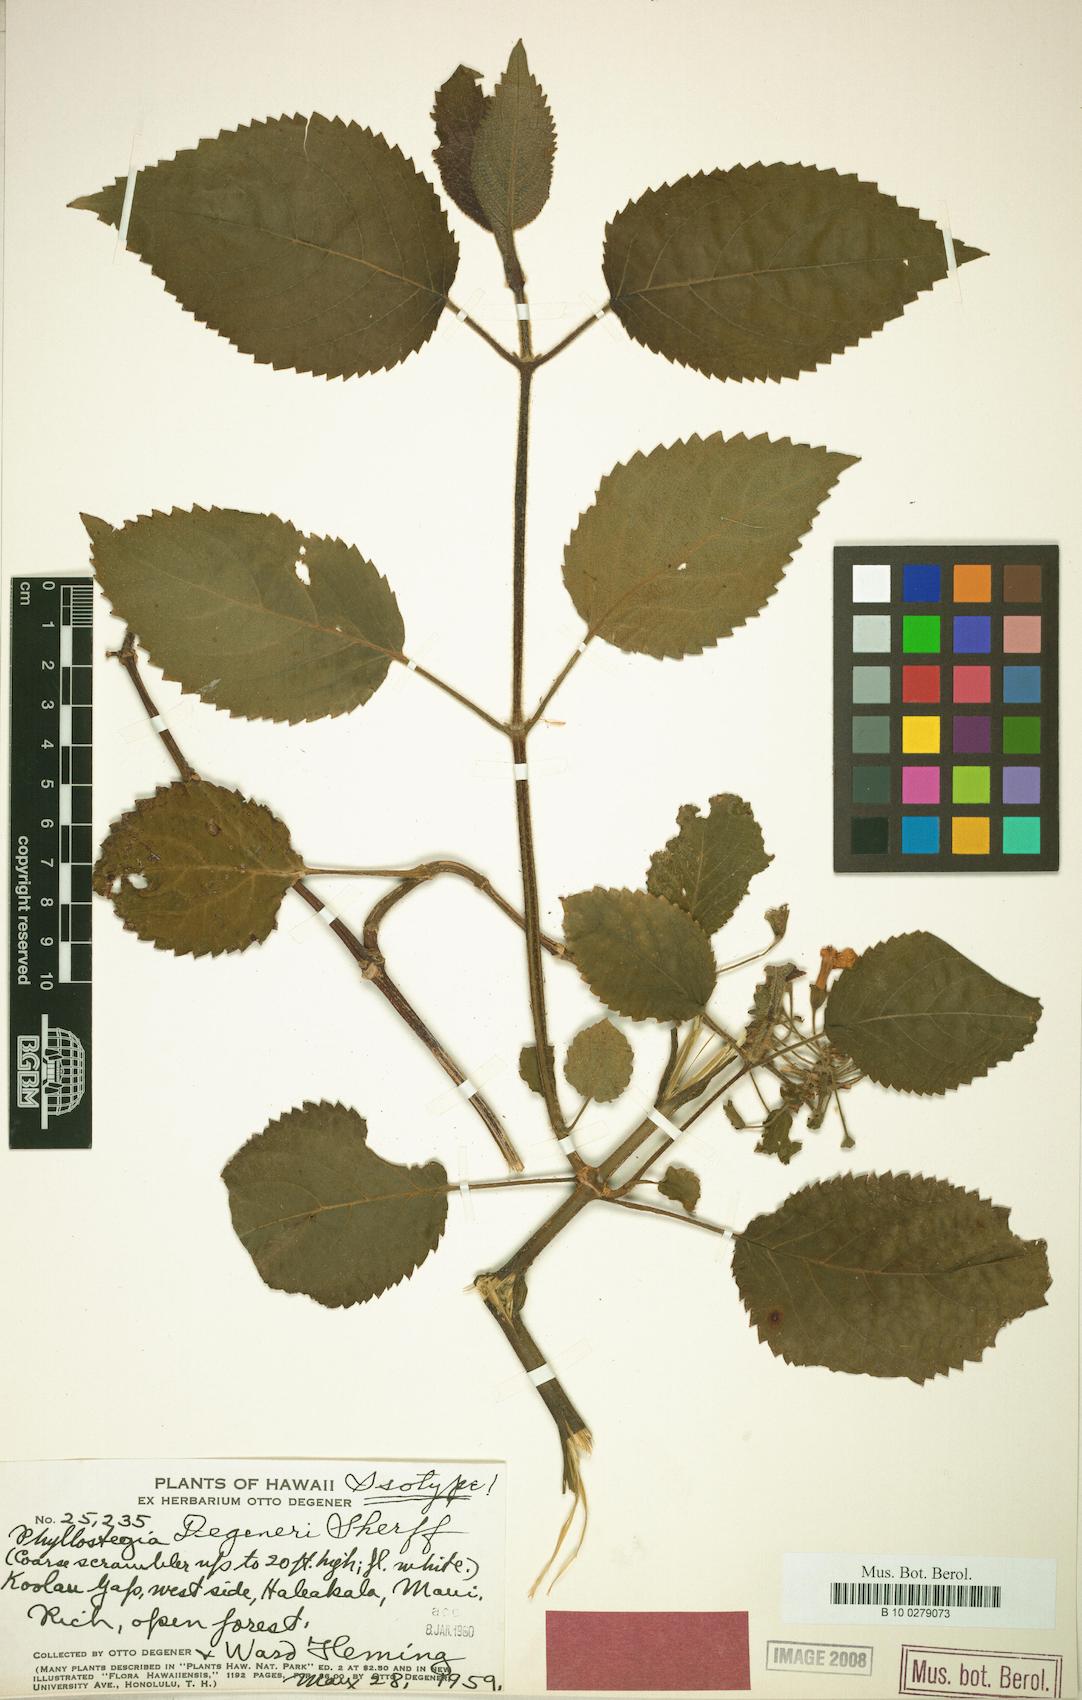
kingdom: Plantae
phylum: Tracheophyta
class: Magnoliopsida
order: Lamiales
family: Lamiaceae
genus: Phyllostegia
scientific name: Phyllostegia ambigua
